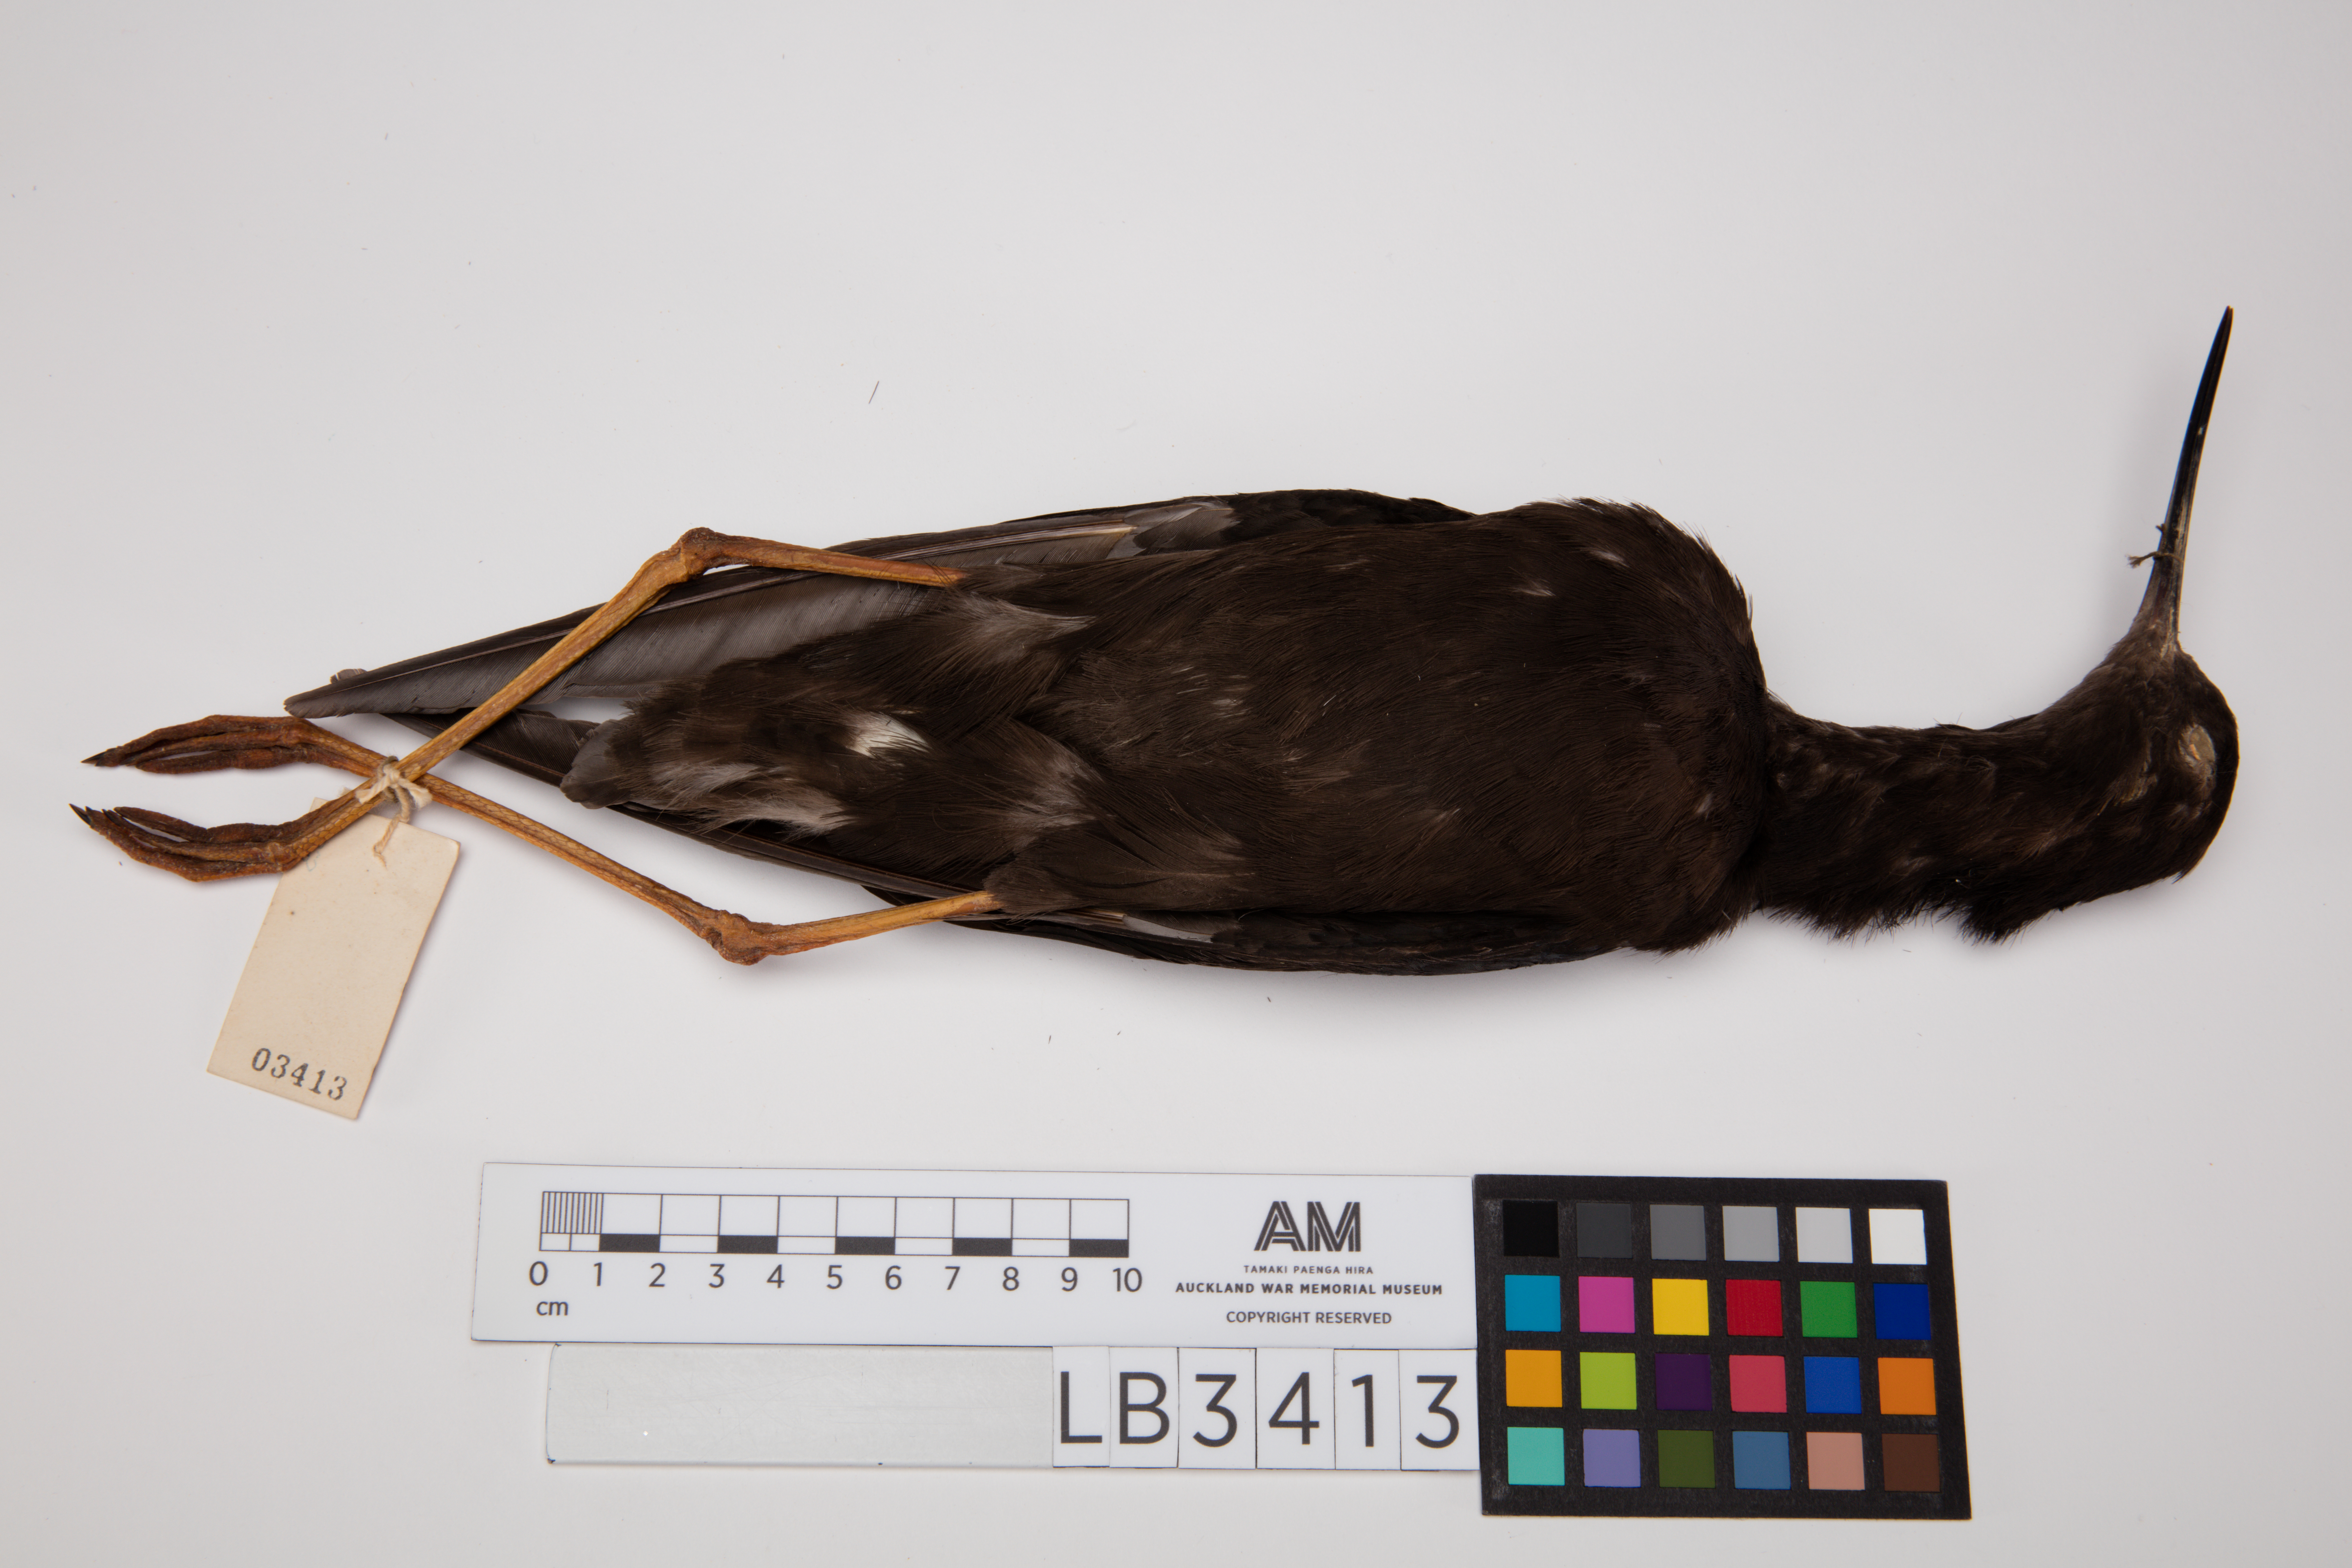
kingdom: Animalia
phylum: Chordata
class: Aves
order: Charadriiformes
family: Recurvirostridae
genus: Himantopus
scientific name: Himantopus novaezelandiae
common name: Black stilt
